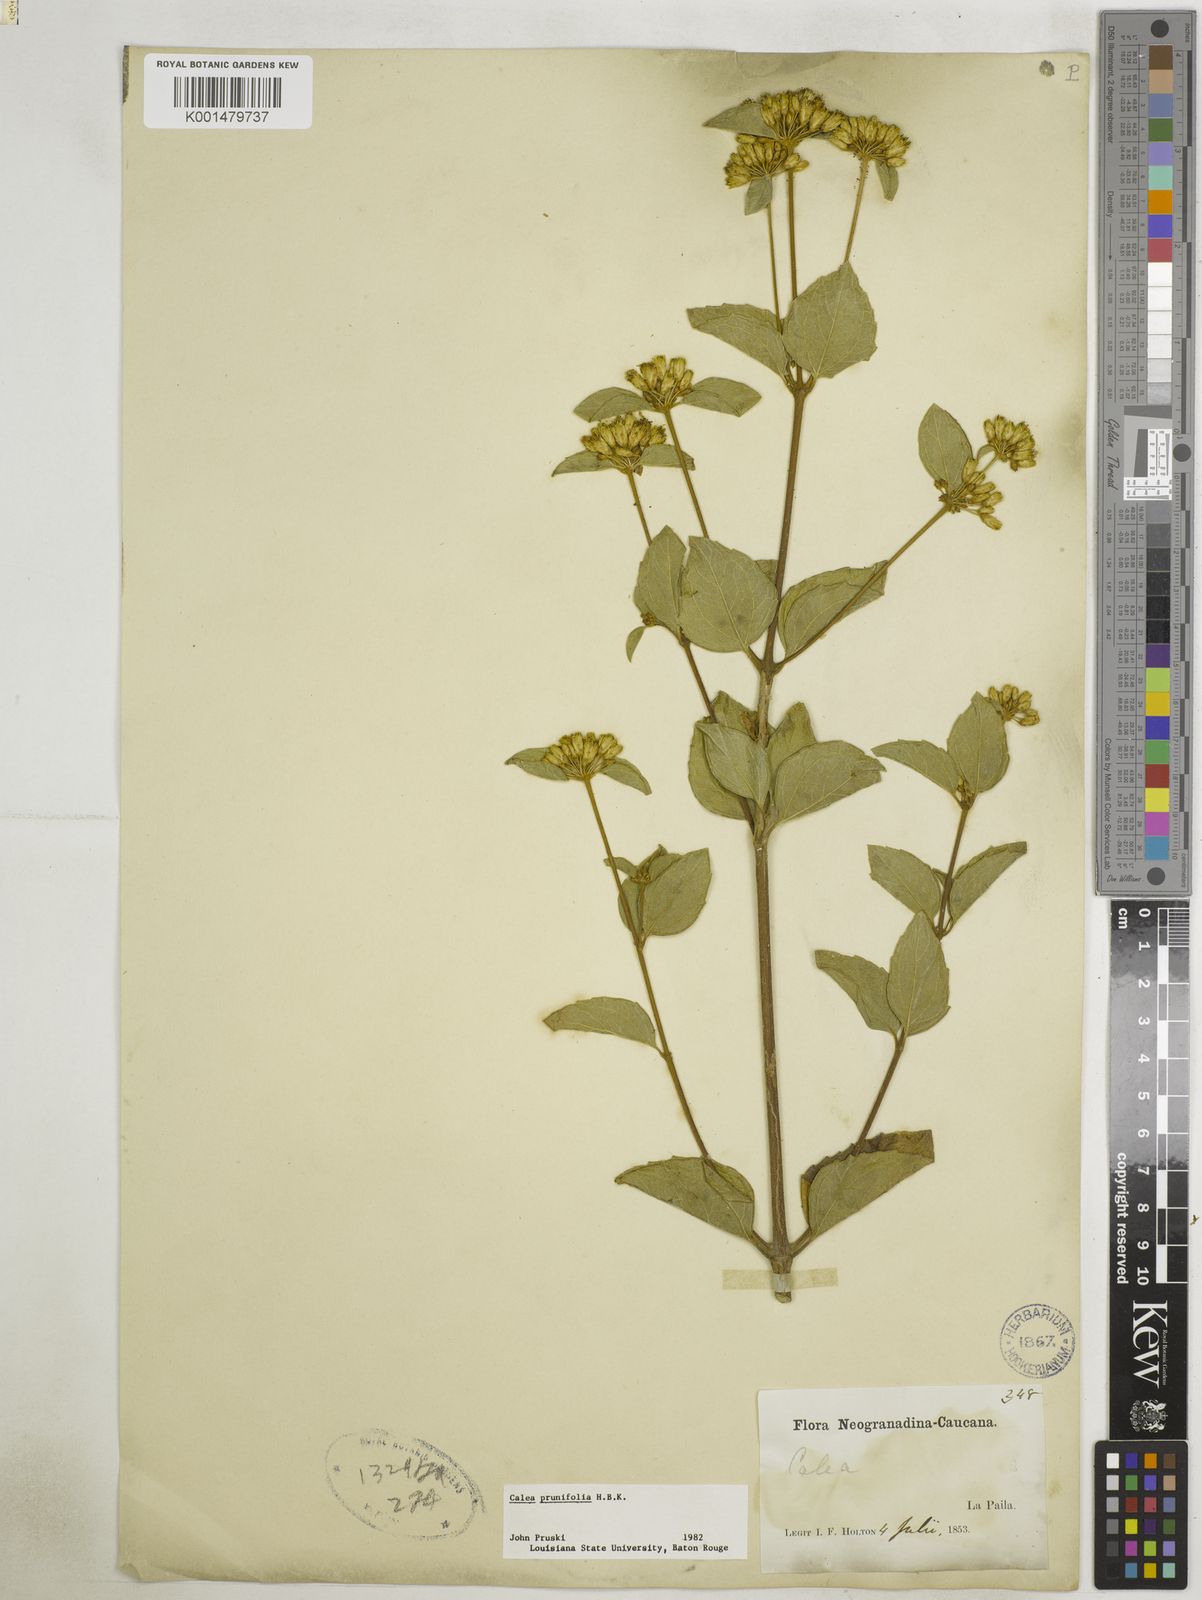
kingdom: Plantae
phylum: Tracheophyta
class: Magnoliopsida
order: Asterales
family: Asteraceae
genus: Calea
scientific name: Calea prunifolia
